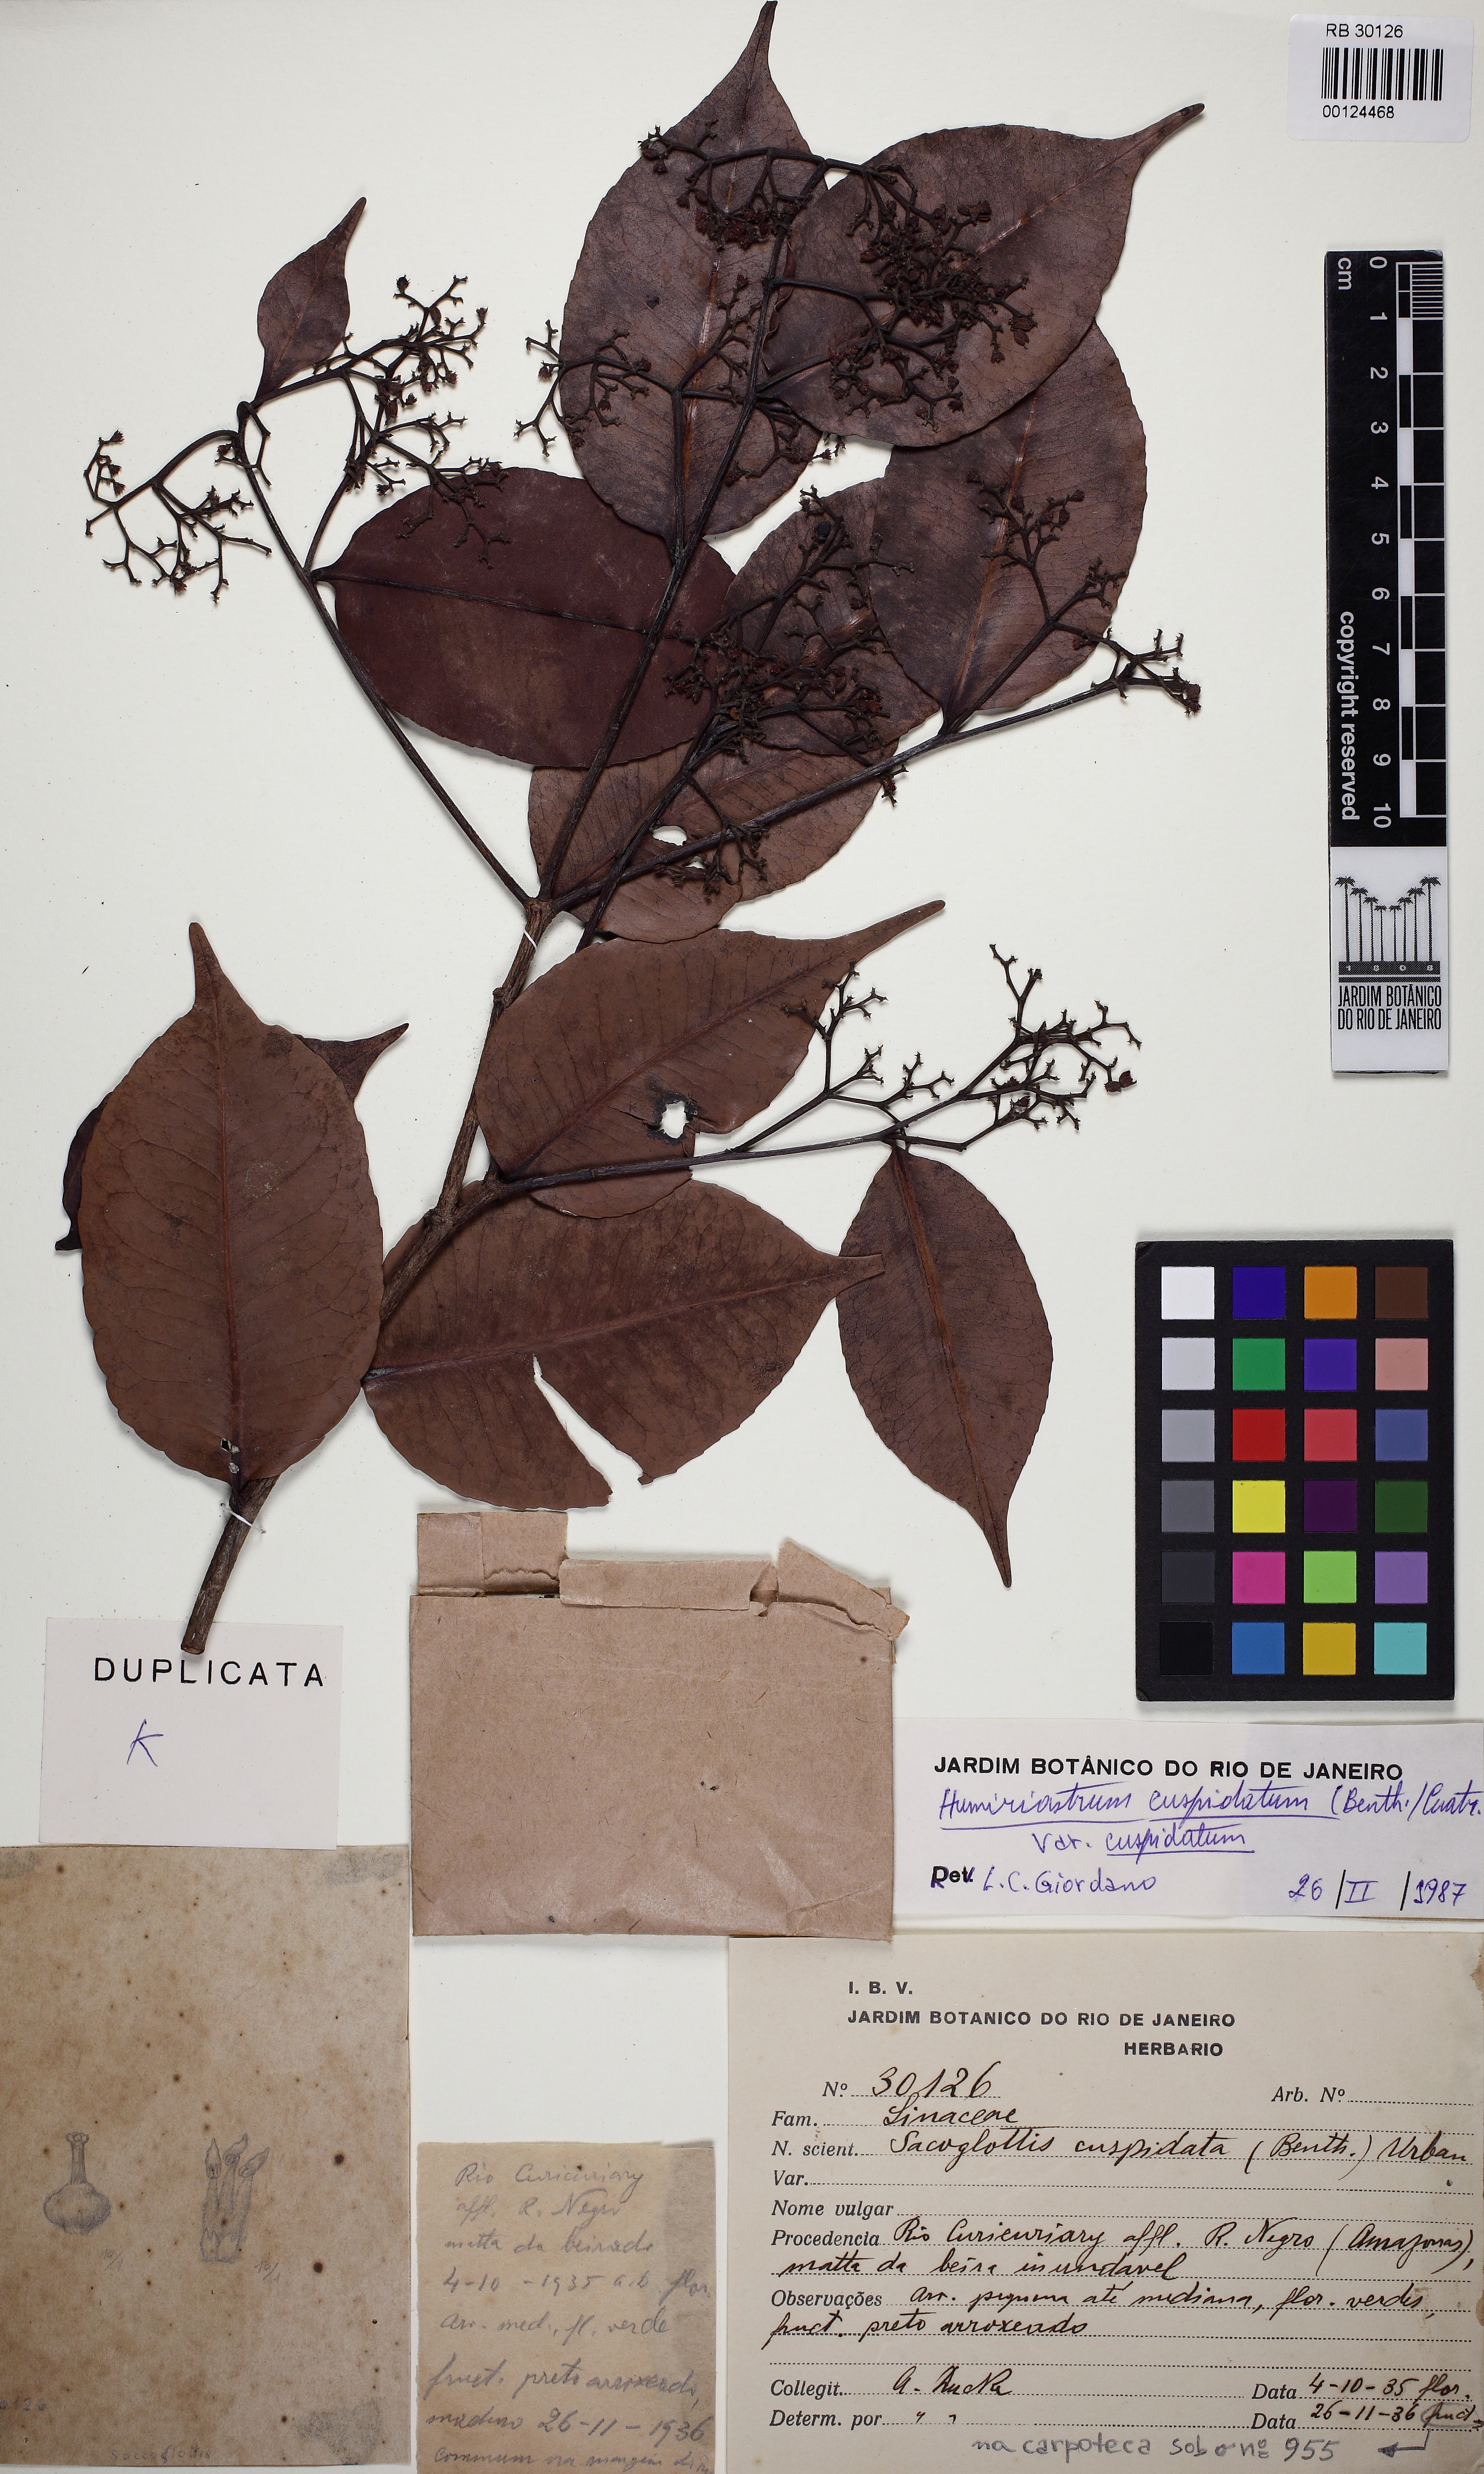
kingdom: Plantae
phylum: Tracheophyta
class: Magnoliopsida
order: Malpighiales
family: Humiriaceae
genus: Humiriastrum
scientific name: Humiriastrum cuspidatum
